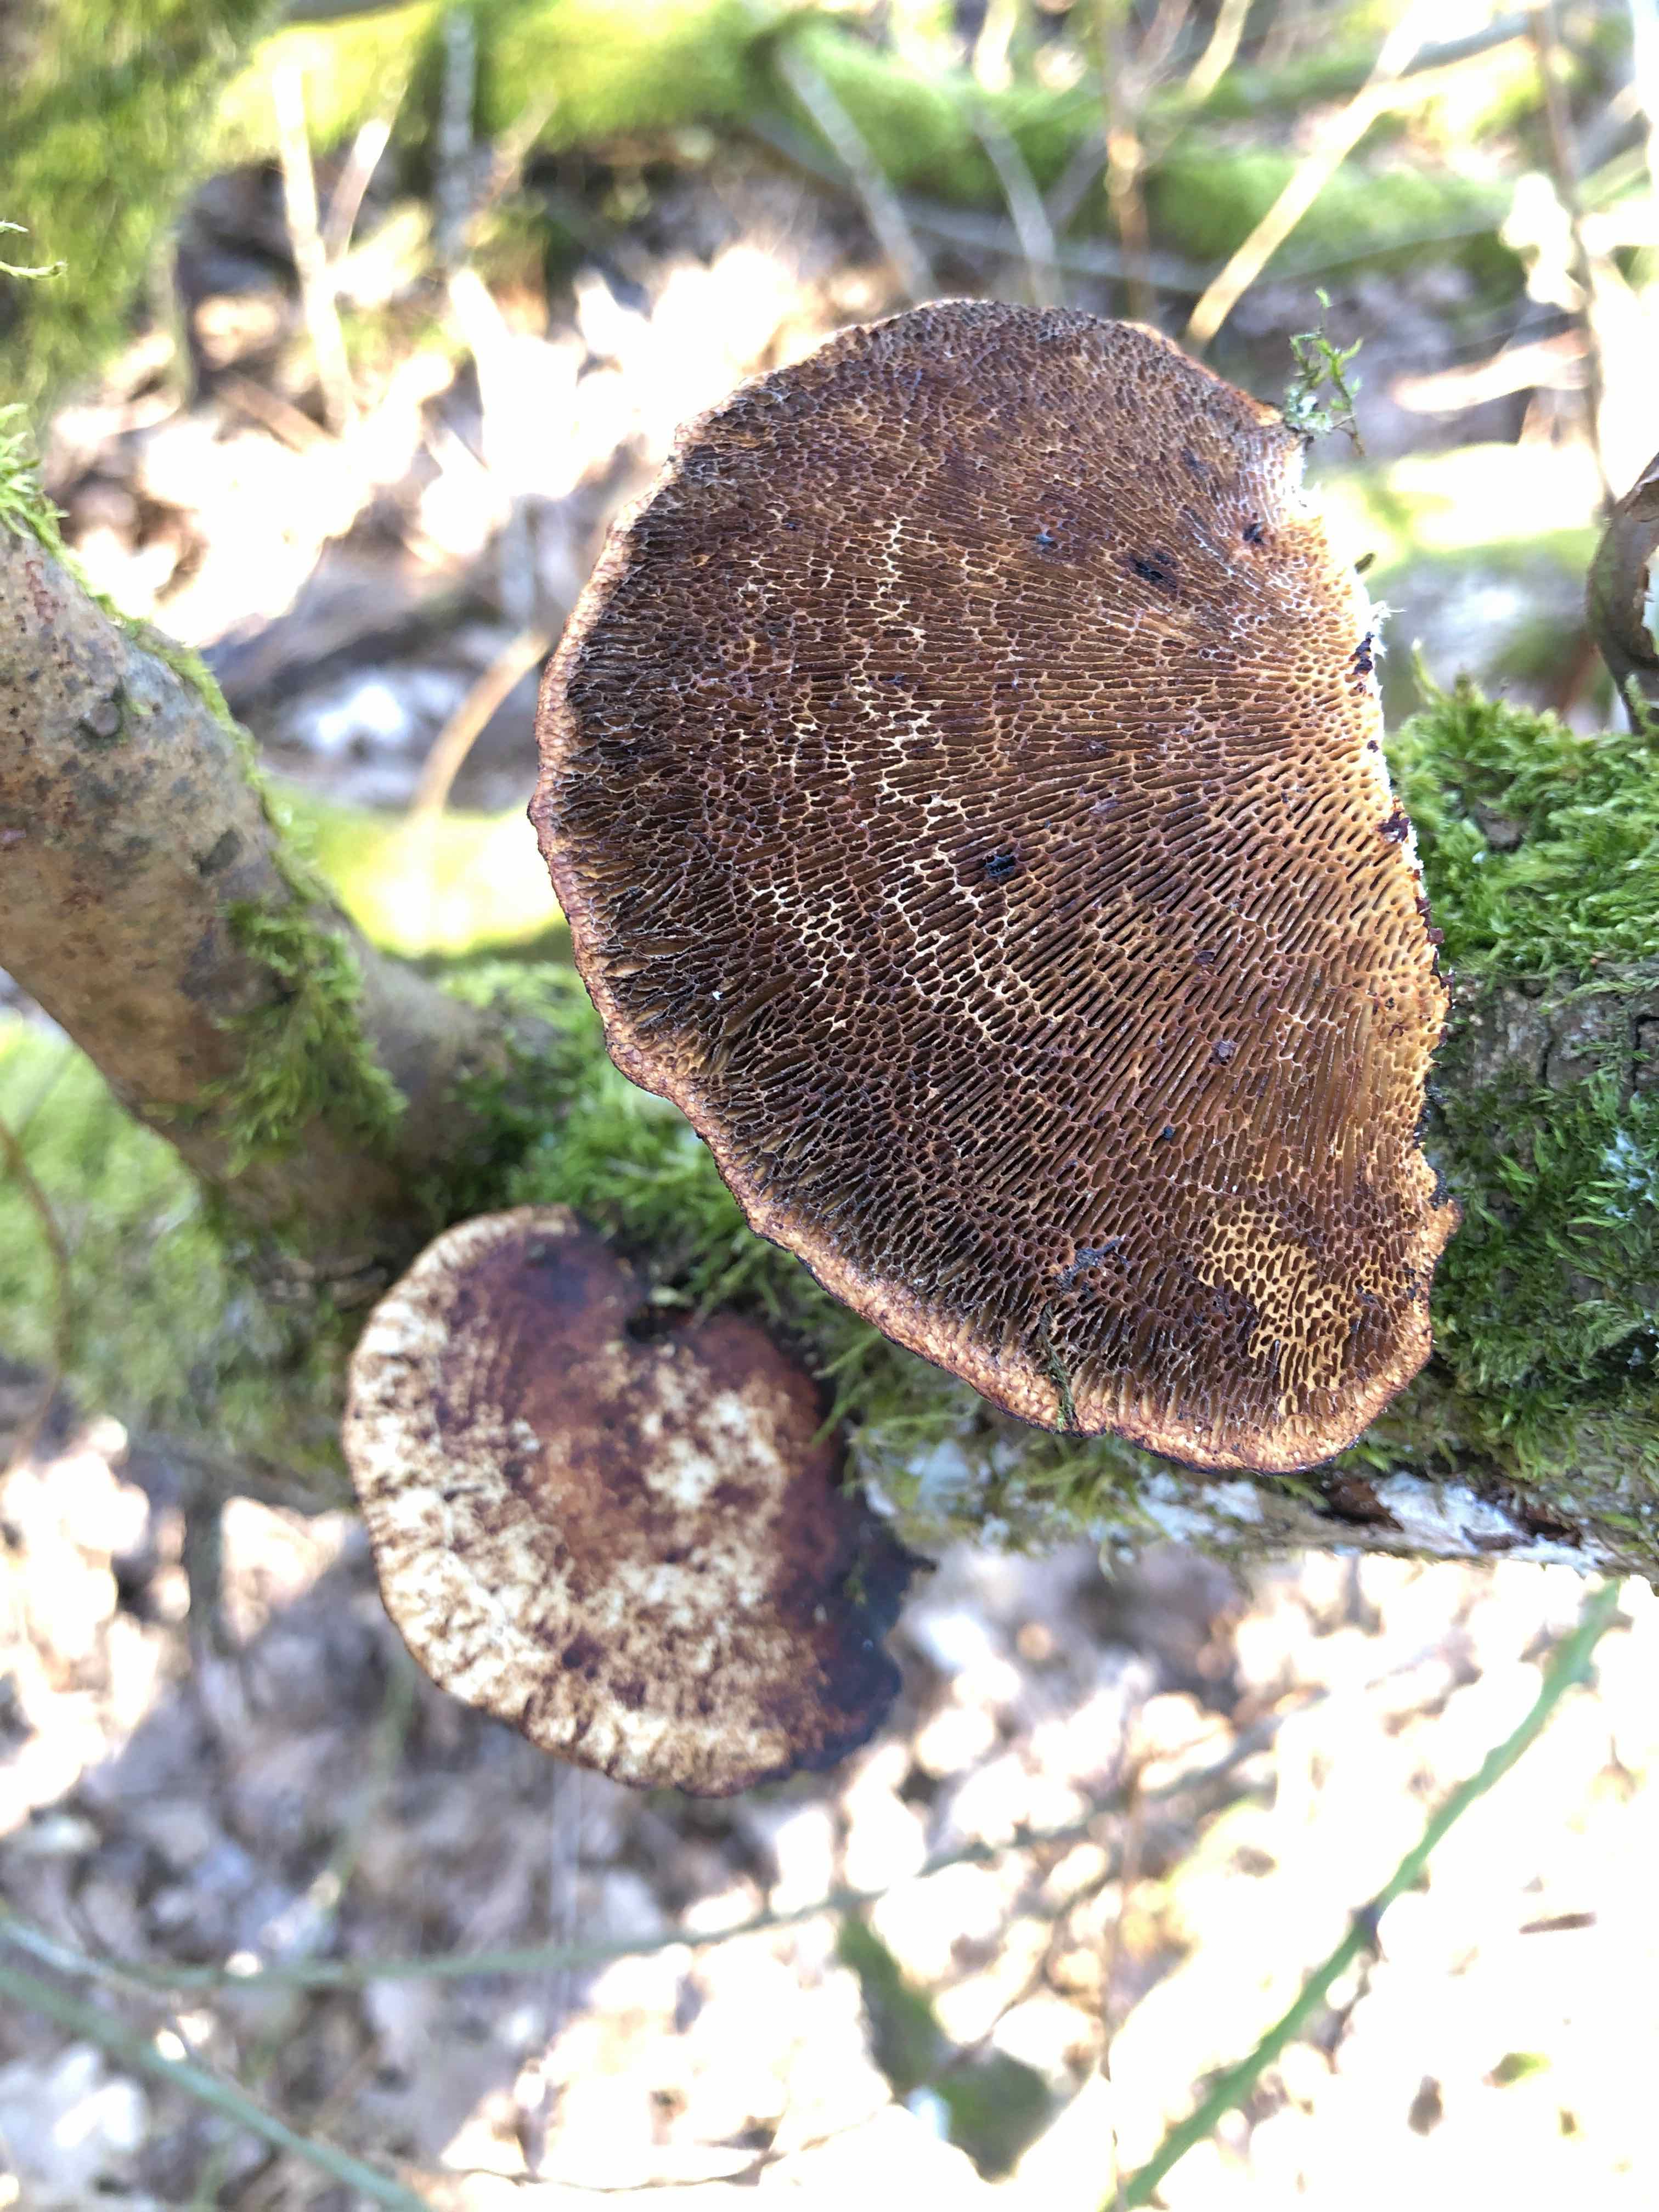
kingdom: Fungi
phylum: Basidiomycota
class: Agaricomycetes
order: Polyporales
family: Polyporaceae
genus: Daedaleopsis
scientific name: Daedaleopsis confragosa
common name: rødmende læderporesvamp
